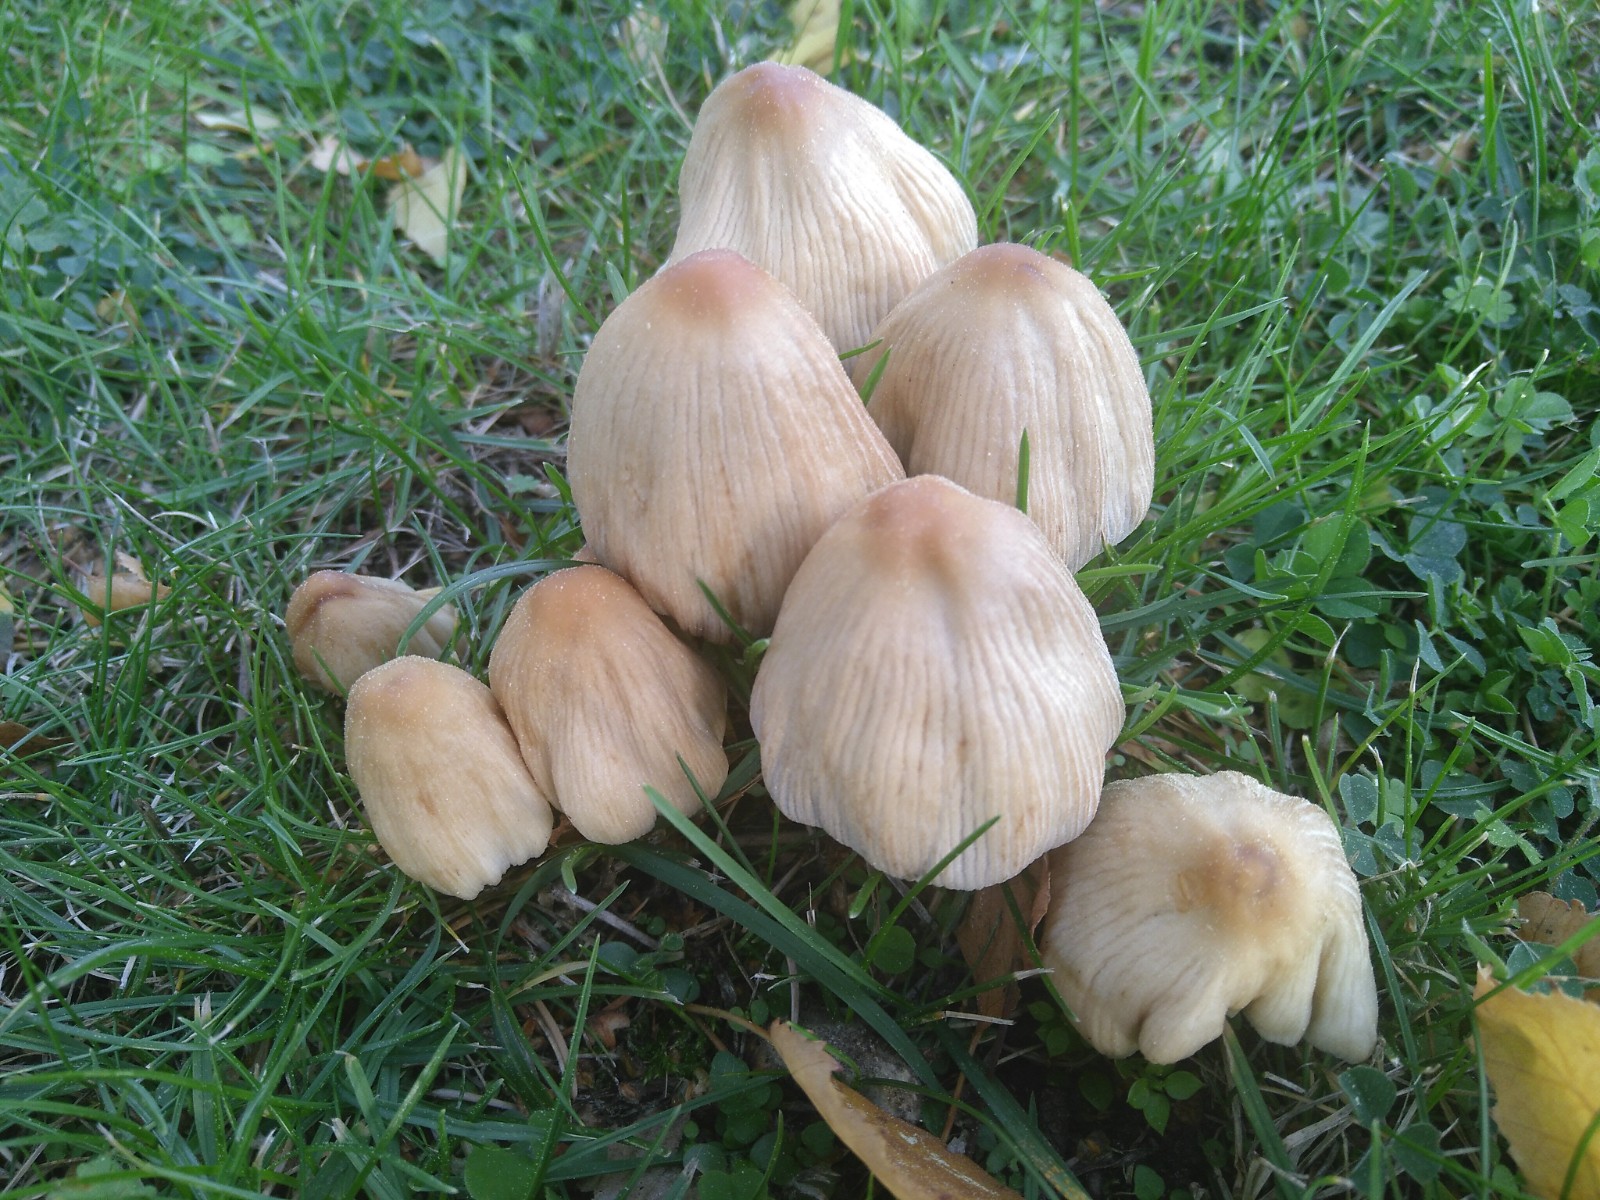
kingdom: Fungi
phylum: Basidiomycota
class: Agaricomycetes
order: Agaricales
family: Psathyrellaceae
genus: Coprinellus
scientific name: Coprinellus
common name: blækhat
